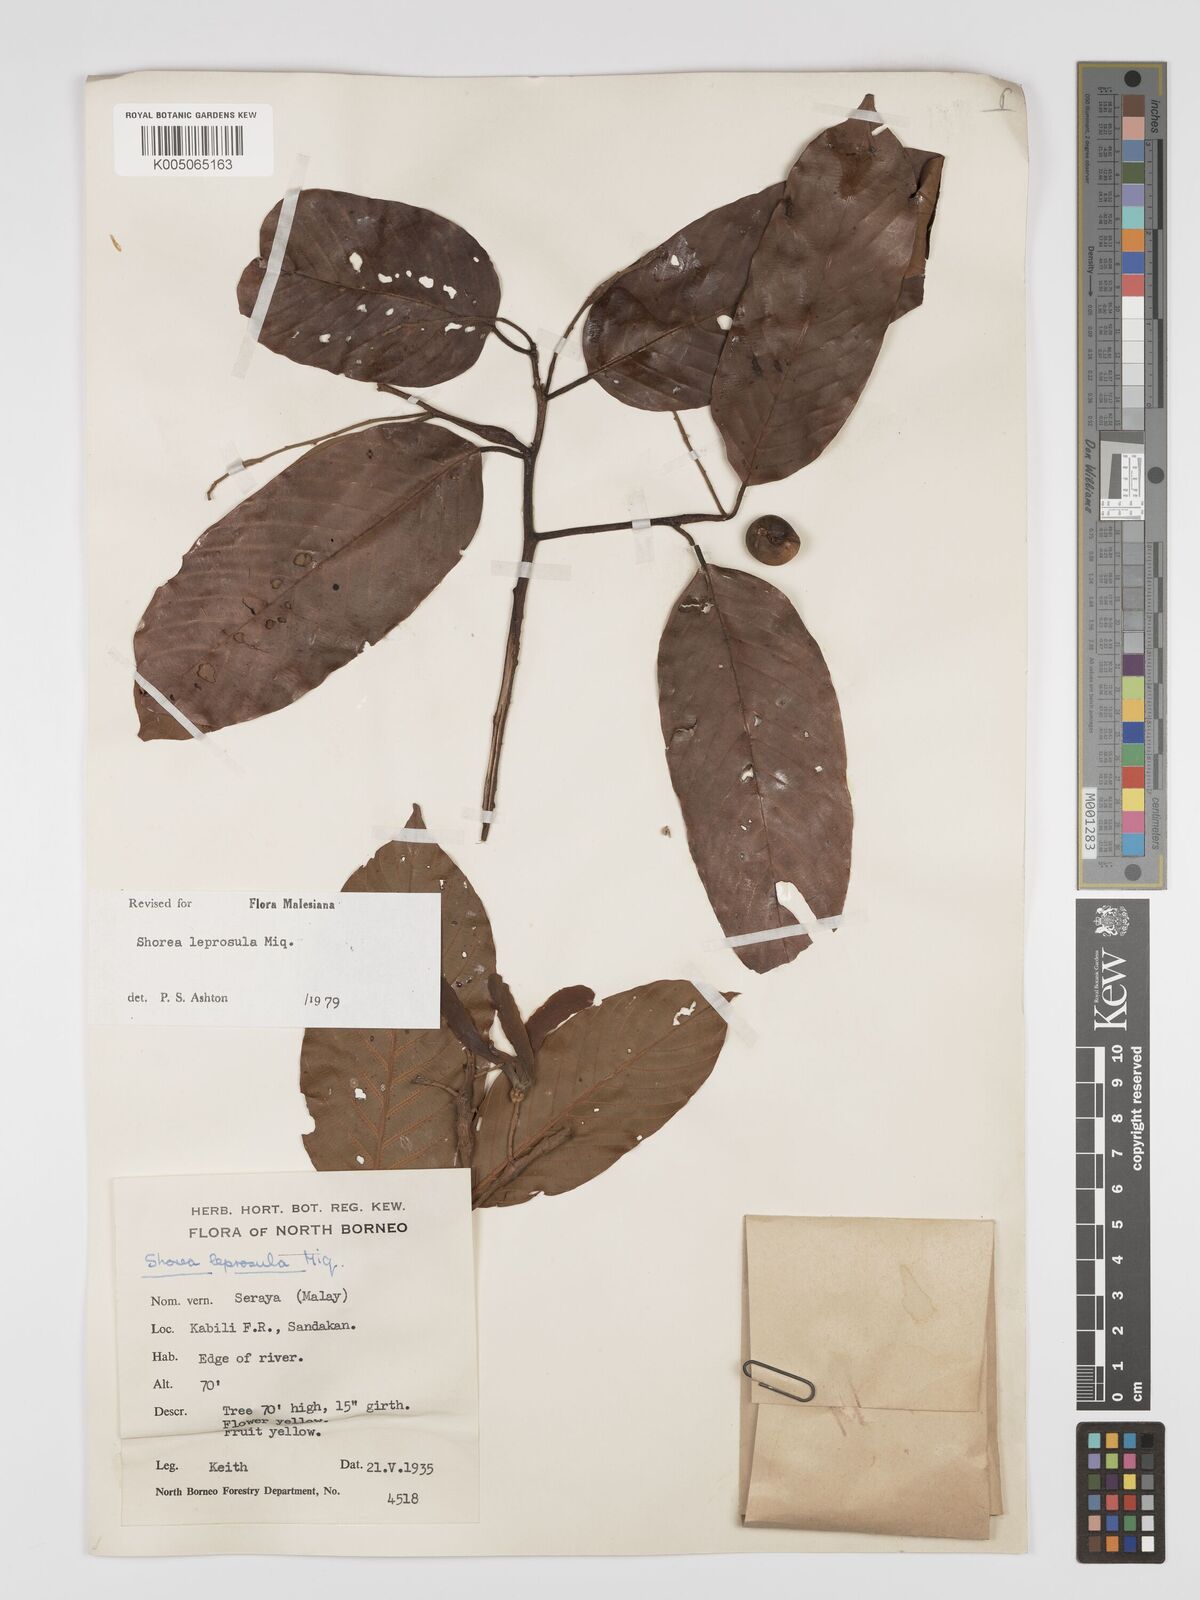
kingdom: Plantae
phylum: Tracheophyta
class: Magnoliopsida
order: Malvales
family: Dipterocarpaceae
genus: Shorea
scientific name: Shorea leprosula
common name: Light red meranti
